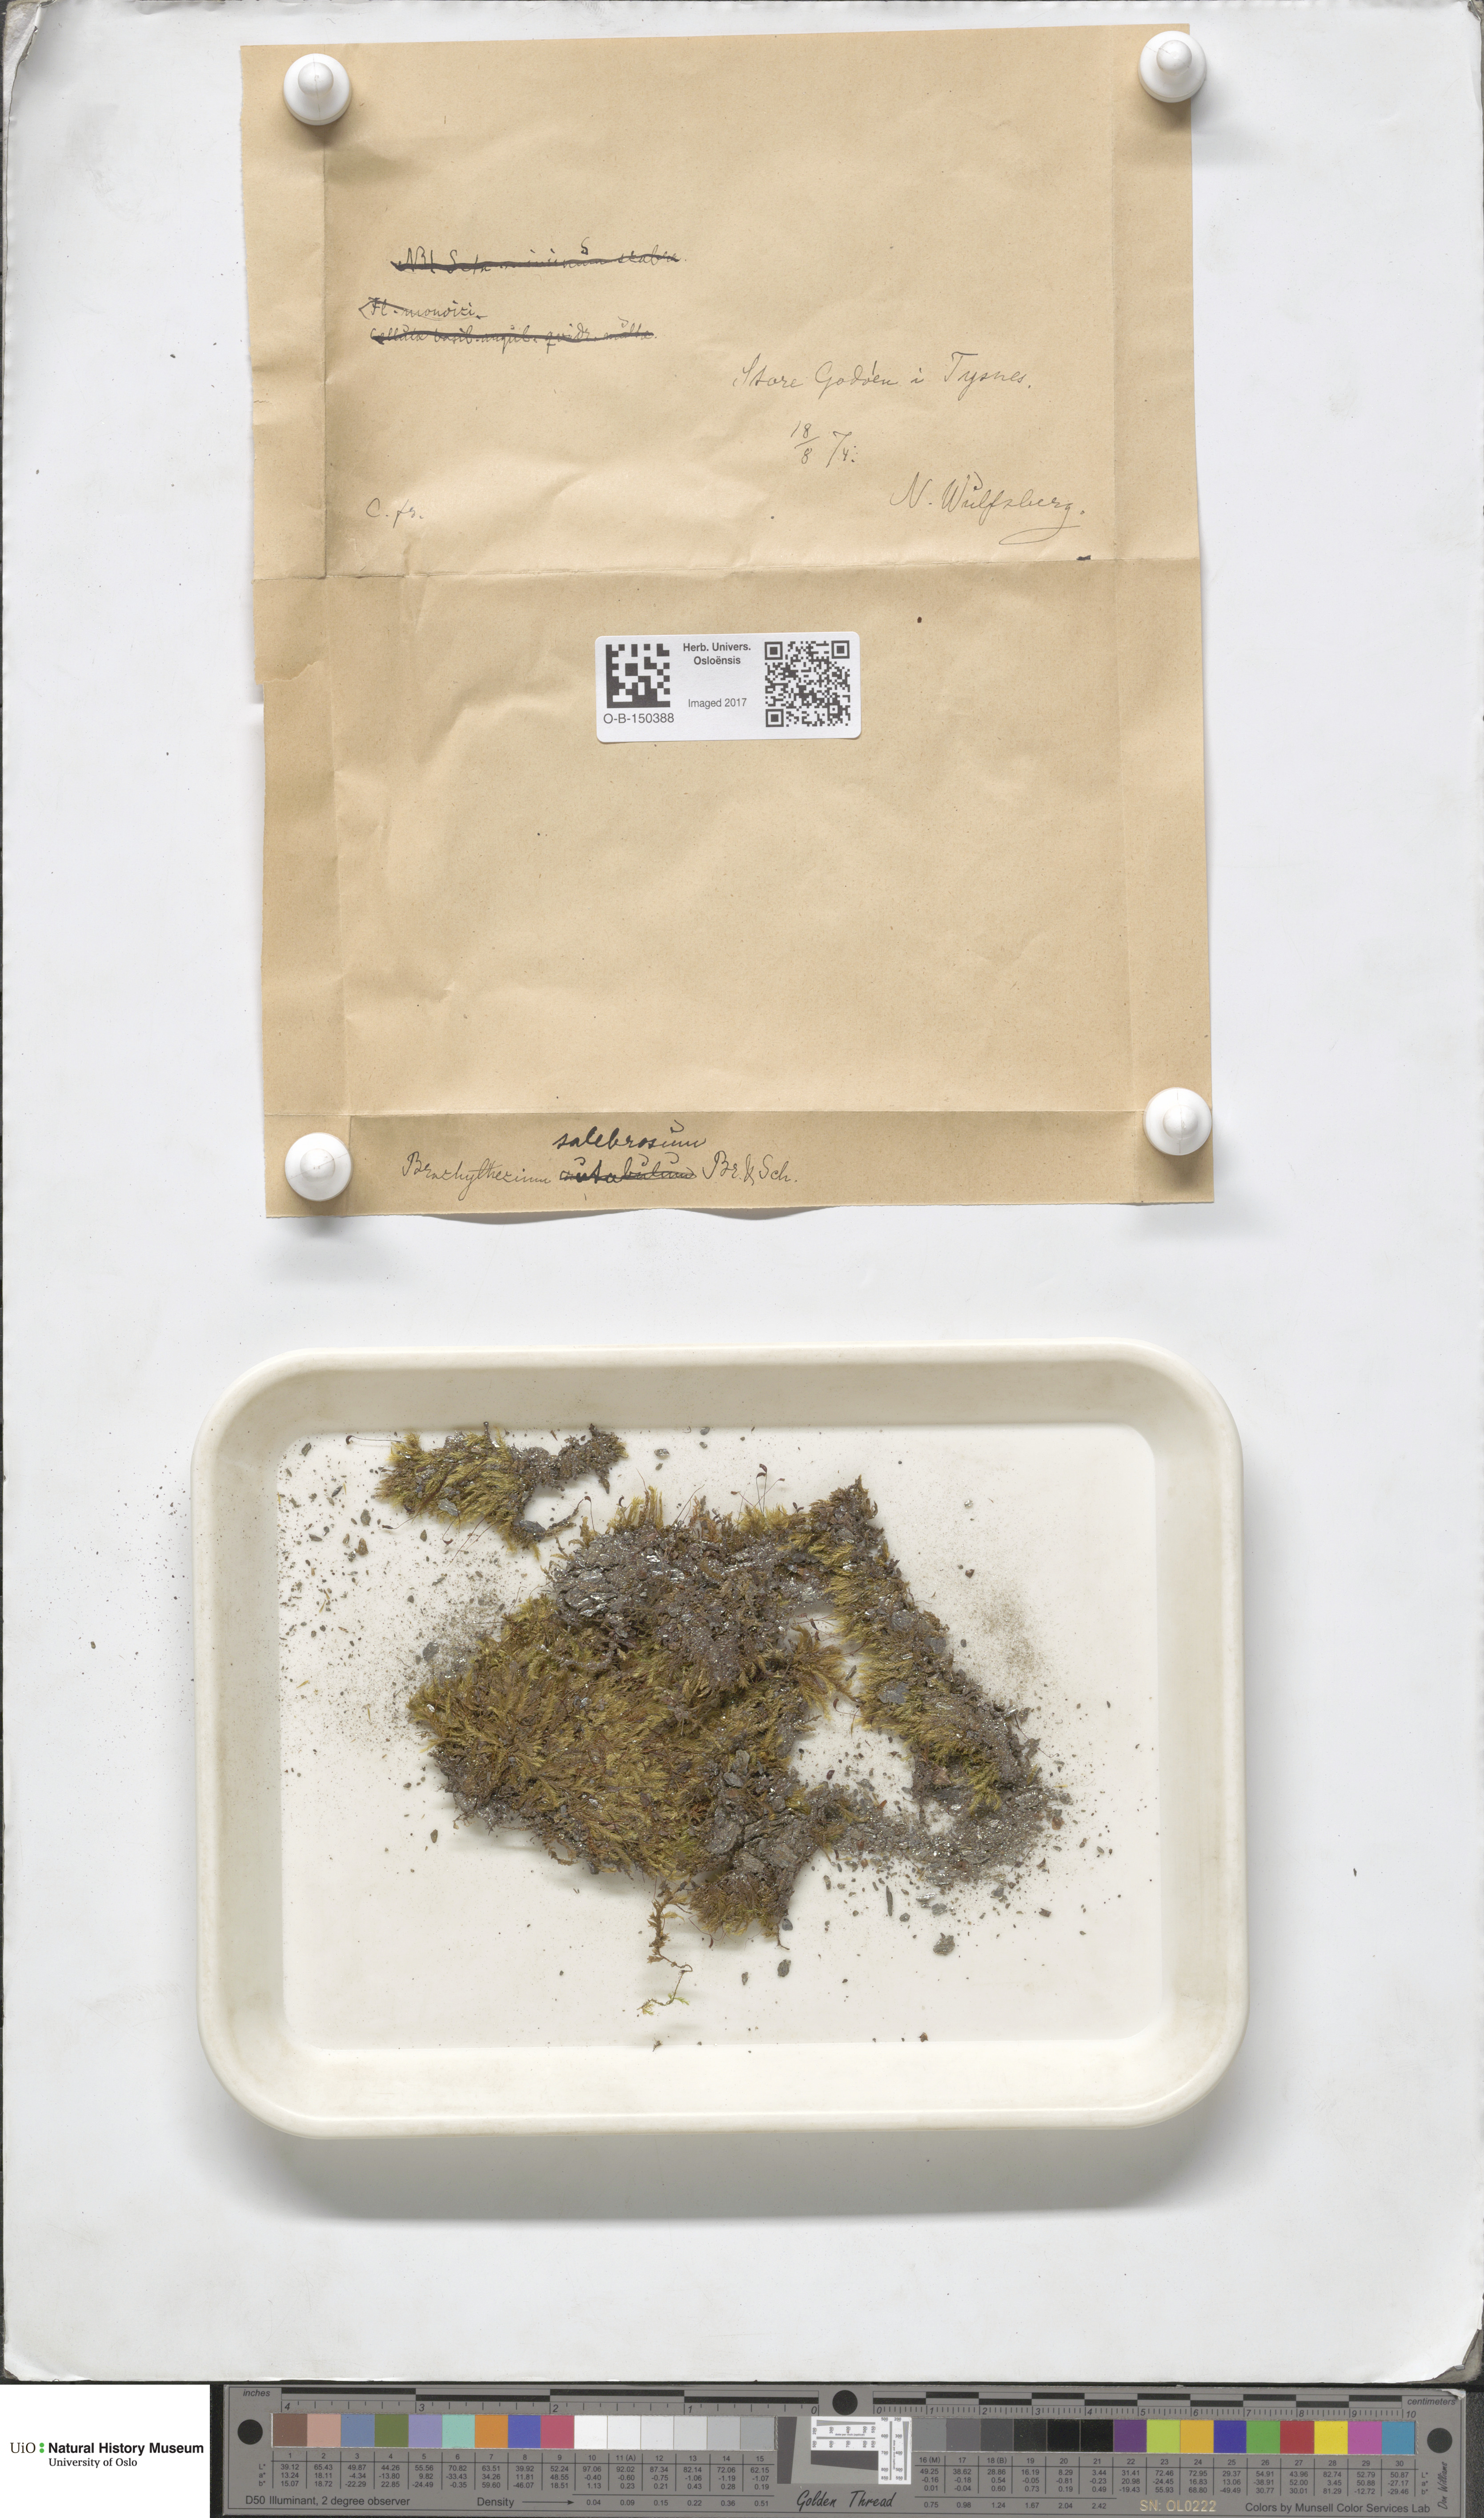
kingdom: Plantae
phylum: Bryophyta
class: Bryopsida
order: Hypnales
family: Brachytheciaceae
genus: Brachythecium
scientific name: Brachythecium salebrosum
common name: Smooth-stalk feather-moss
